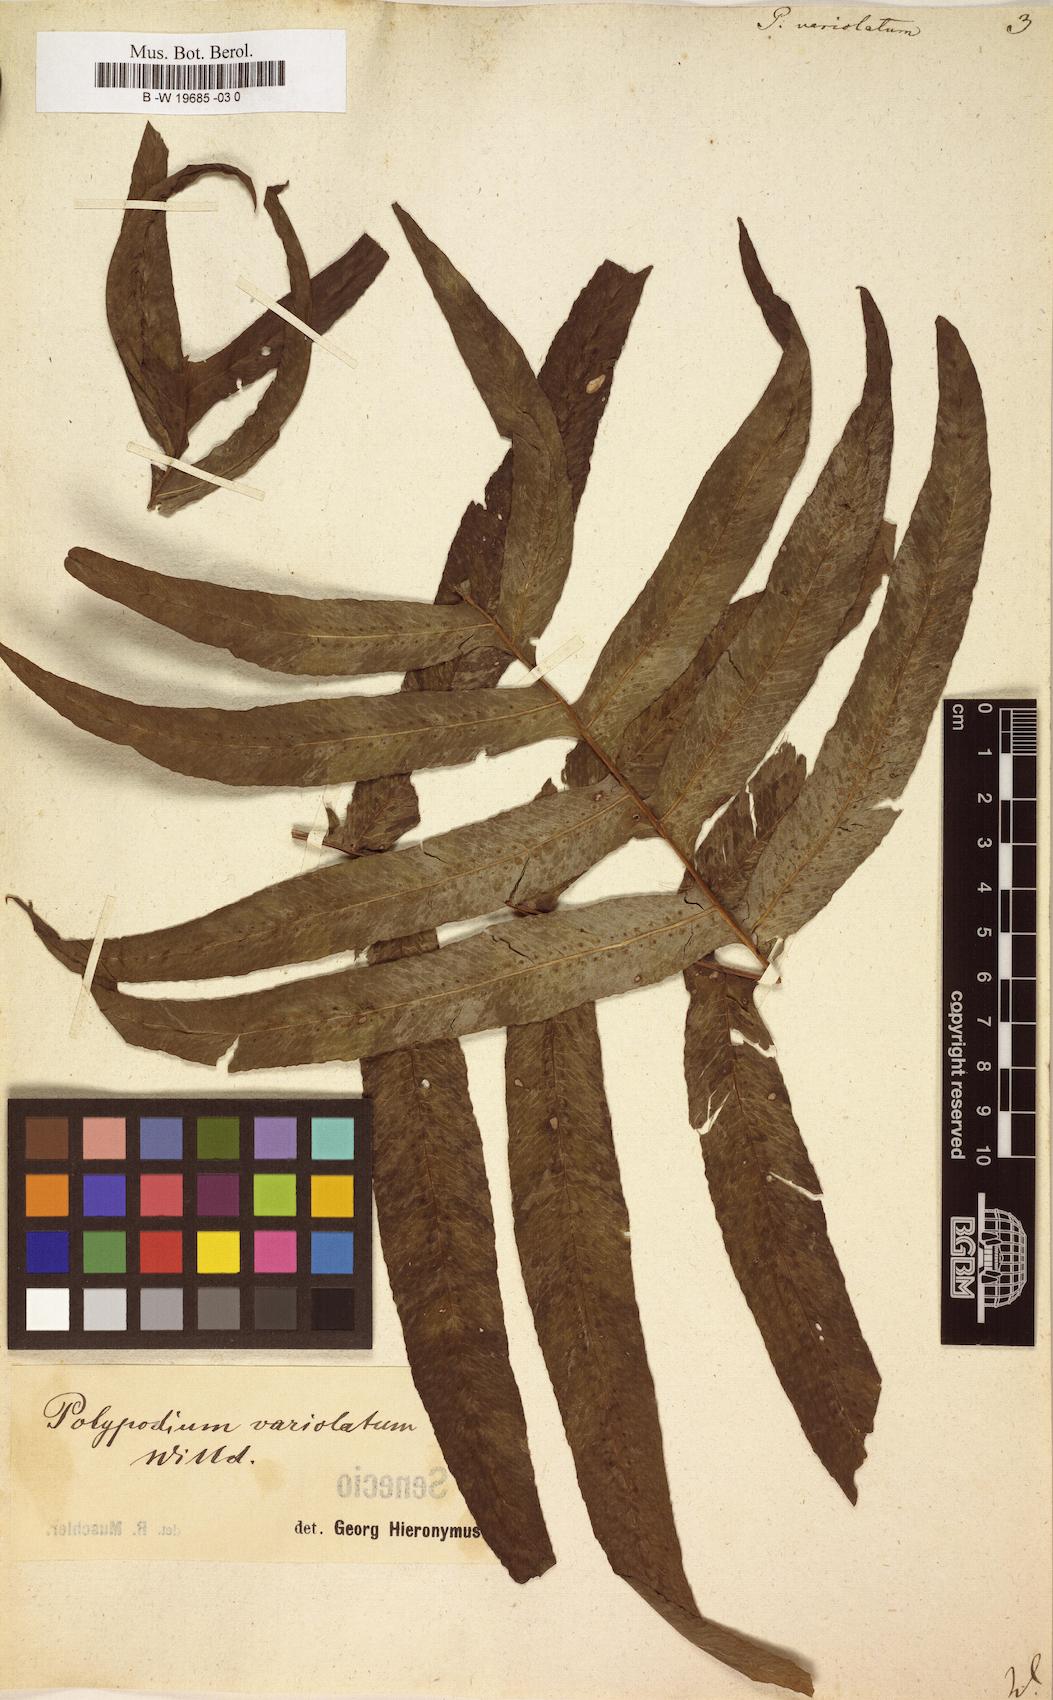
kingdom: Plantae
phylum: Tracheophyta
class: Polypodiopsida
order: Polypodiales
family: Polypodiaceae
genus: Serpocaulon
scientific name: Serpocaulon triseriale
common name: Angle-vein fern
